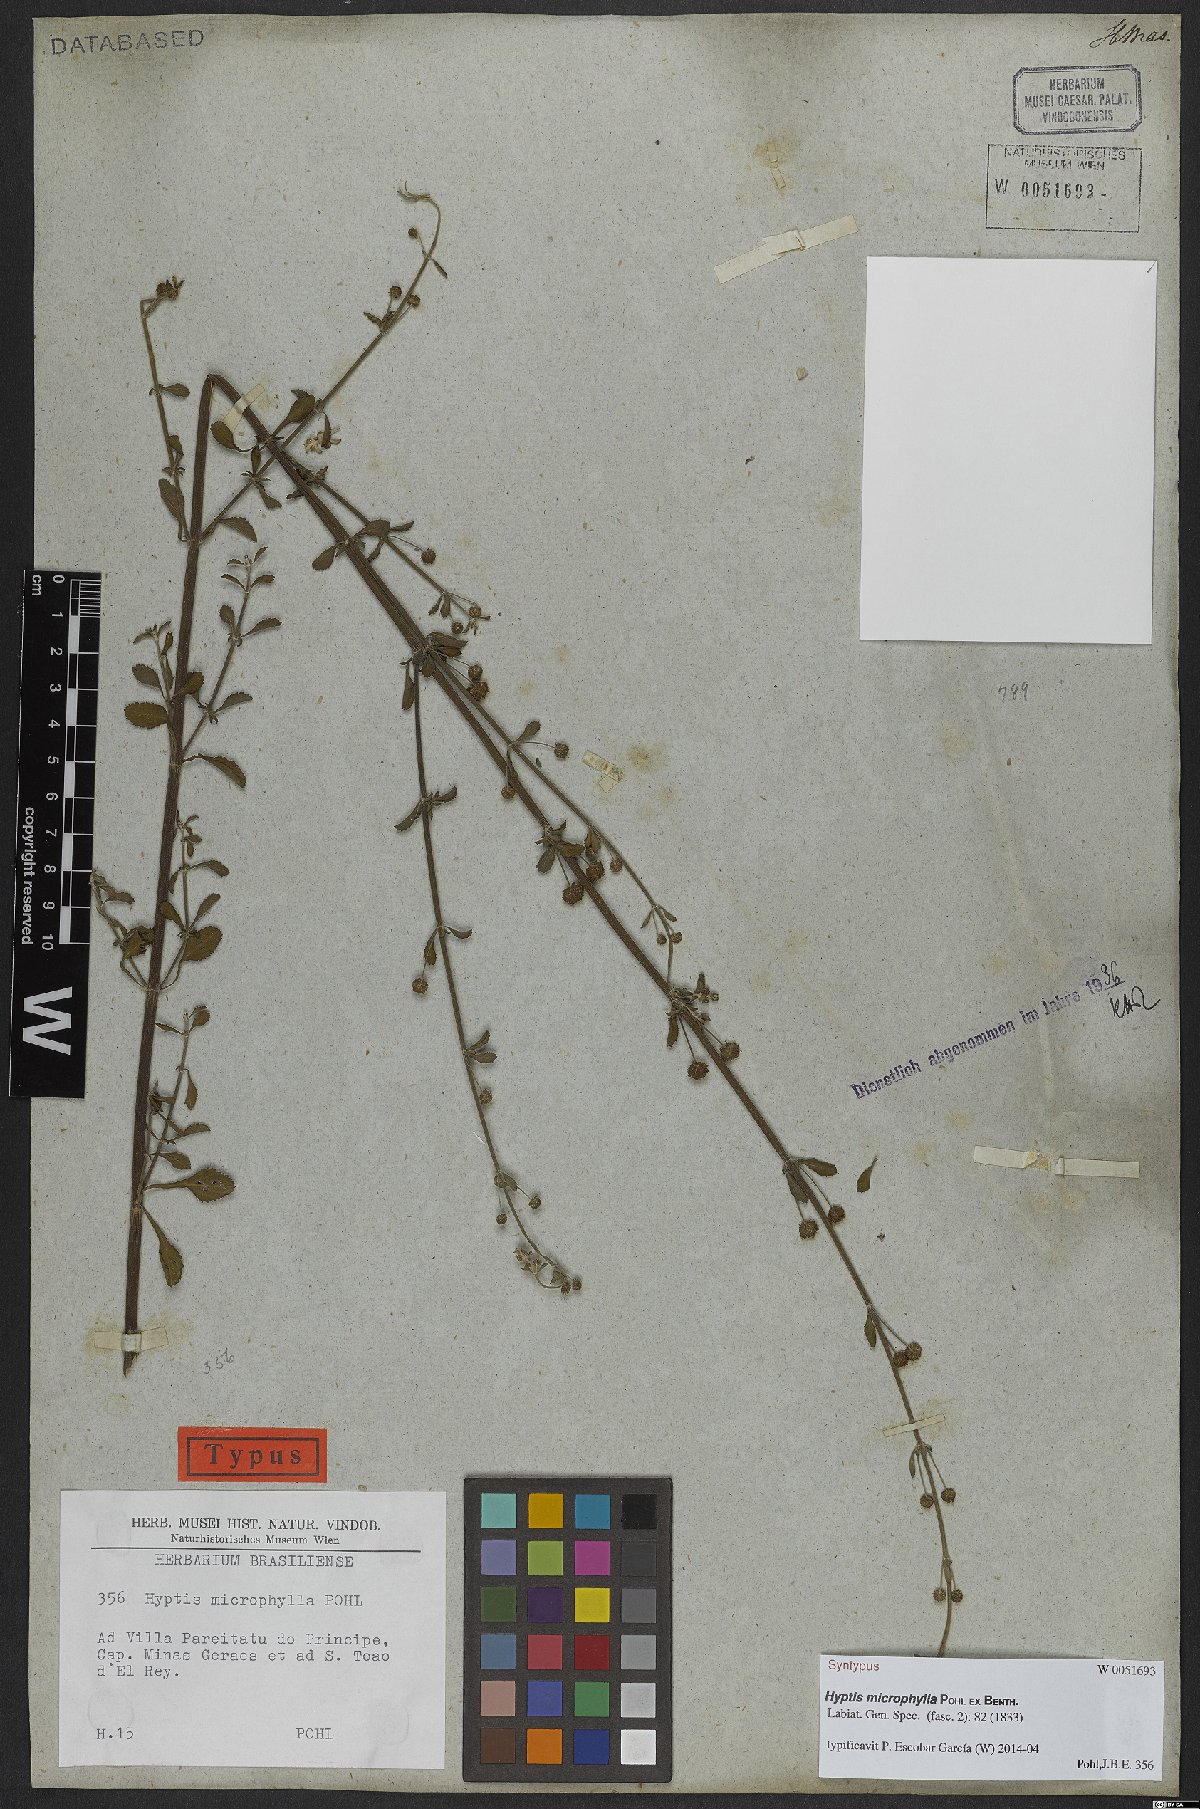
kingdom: Plantae
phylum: Tracheophyta
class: Magnoliopsida
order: Lamiales
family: Lamiaceae
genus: Hyptis
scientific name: Hyptis microphylla
